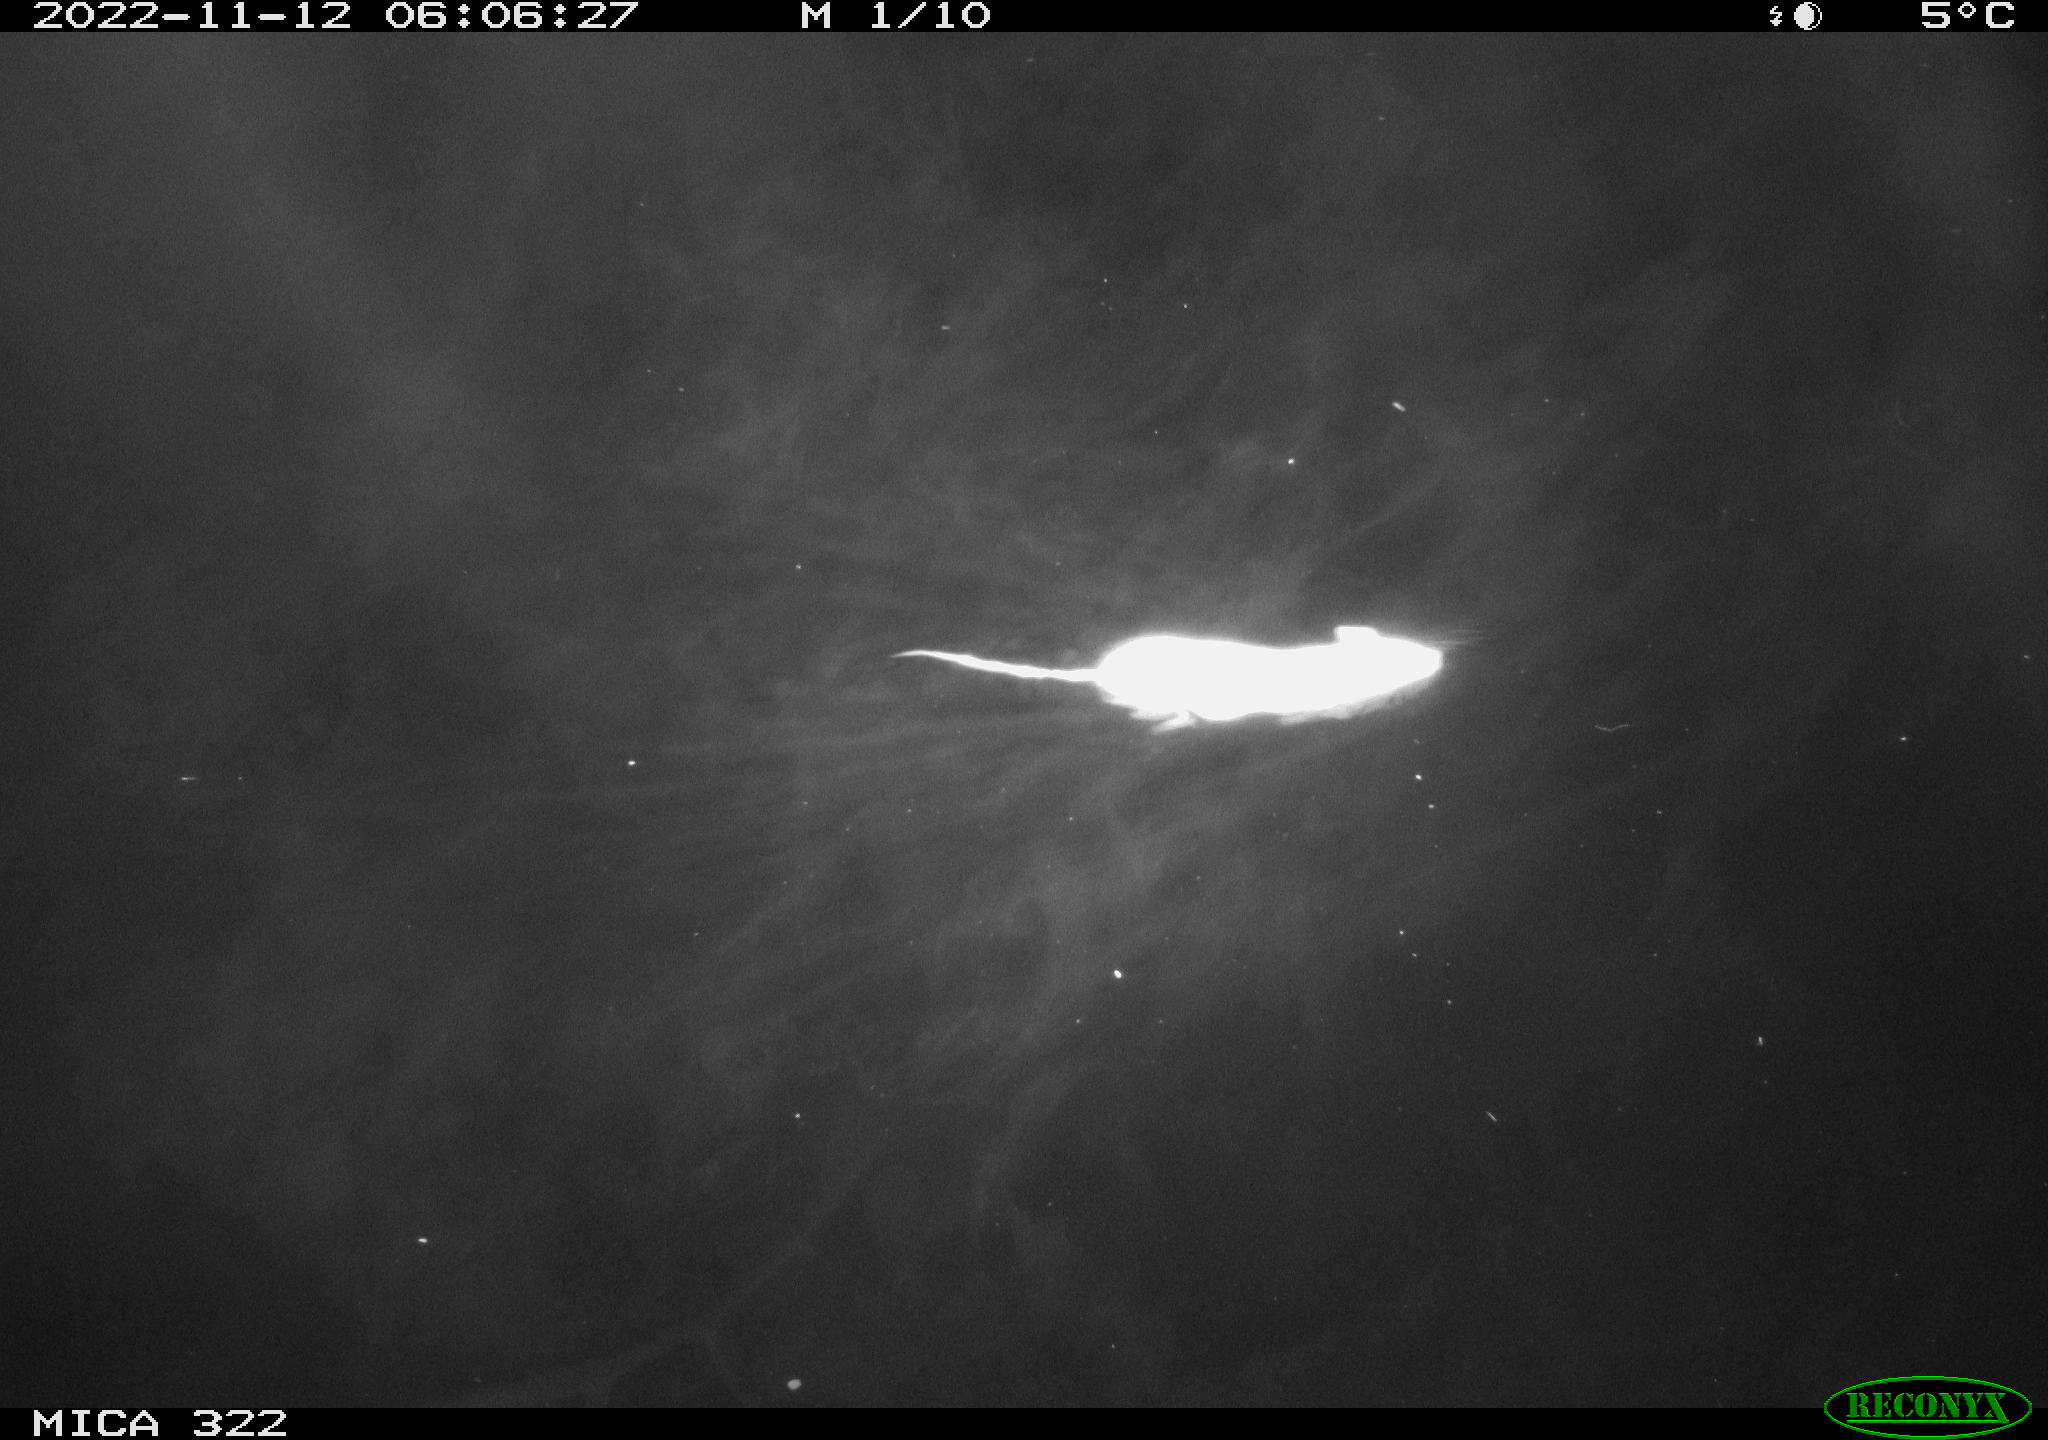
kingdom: Animalia
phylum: Chordata
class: Mammalia
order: Rodentia
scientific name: Rodentia
